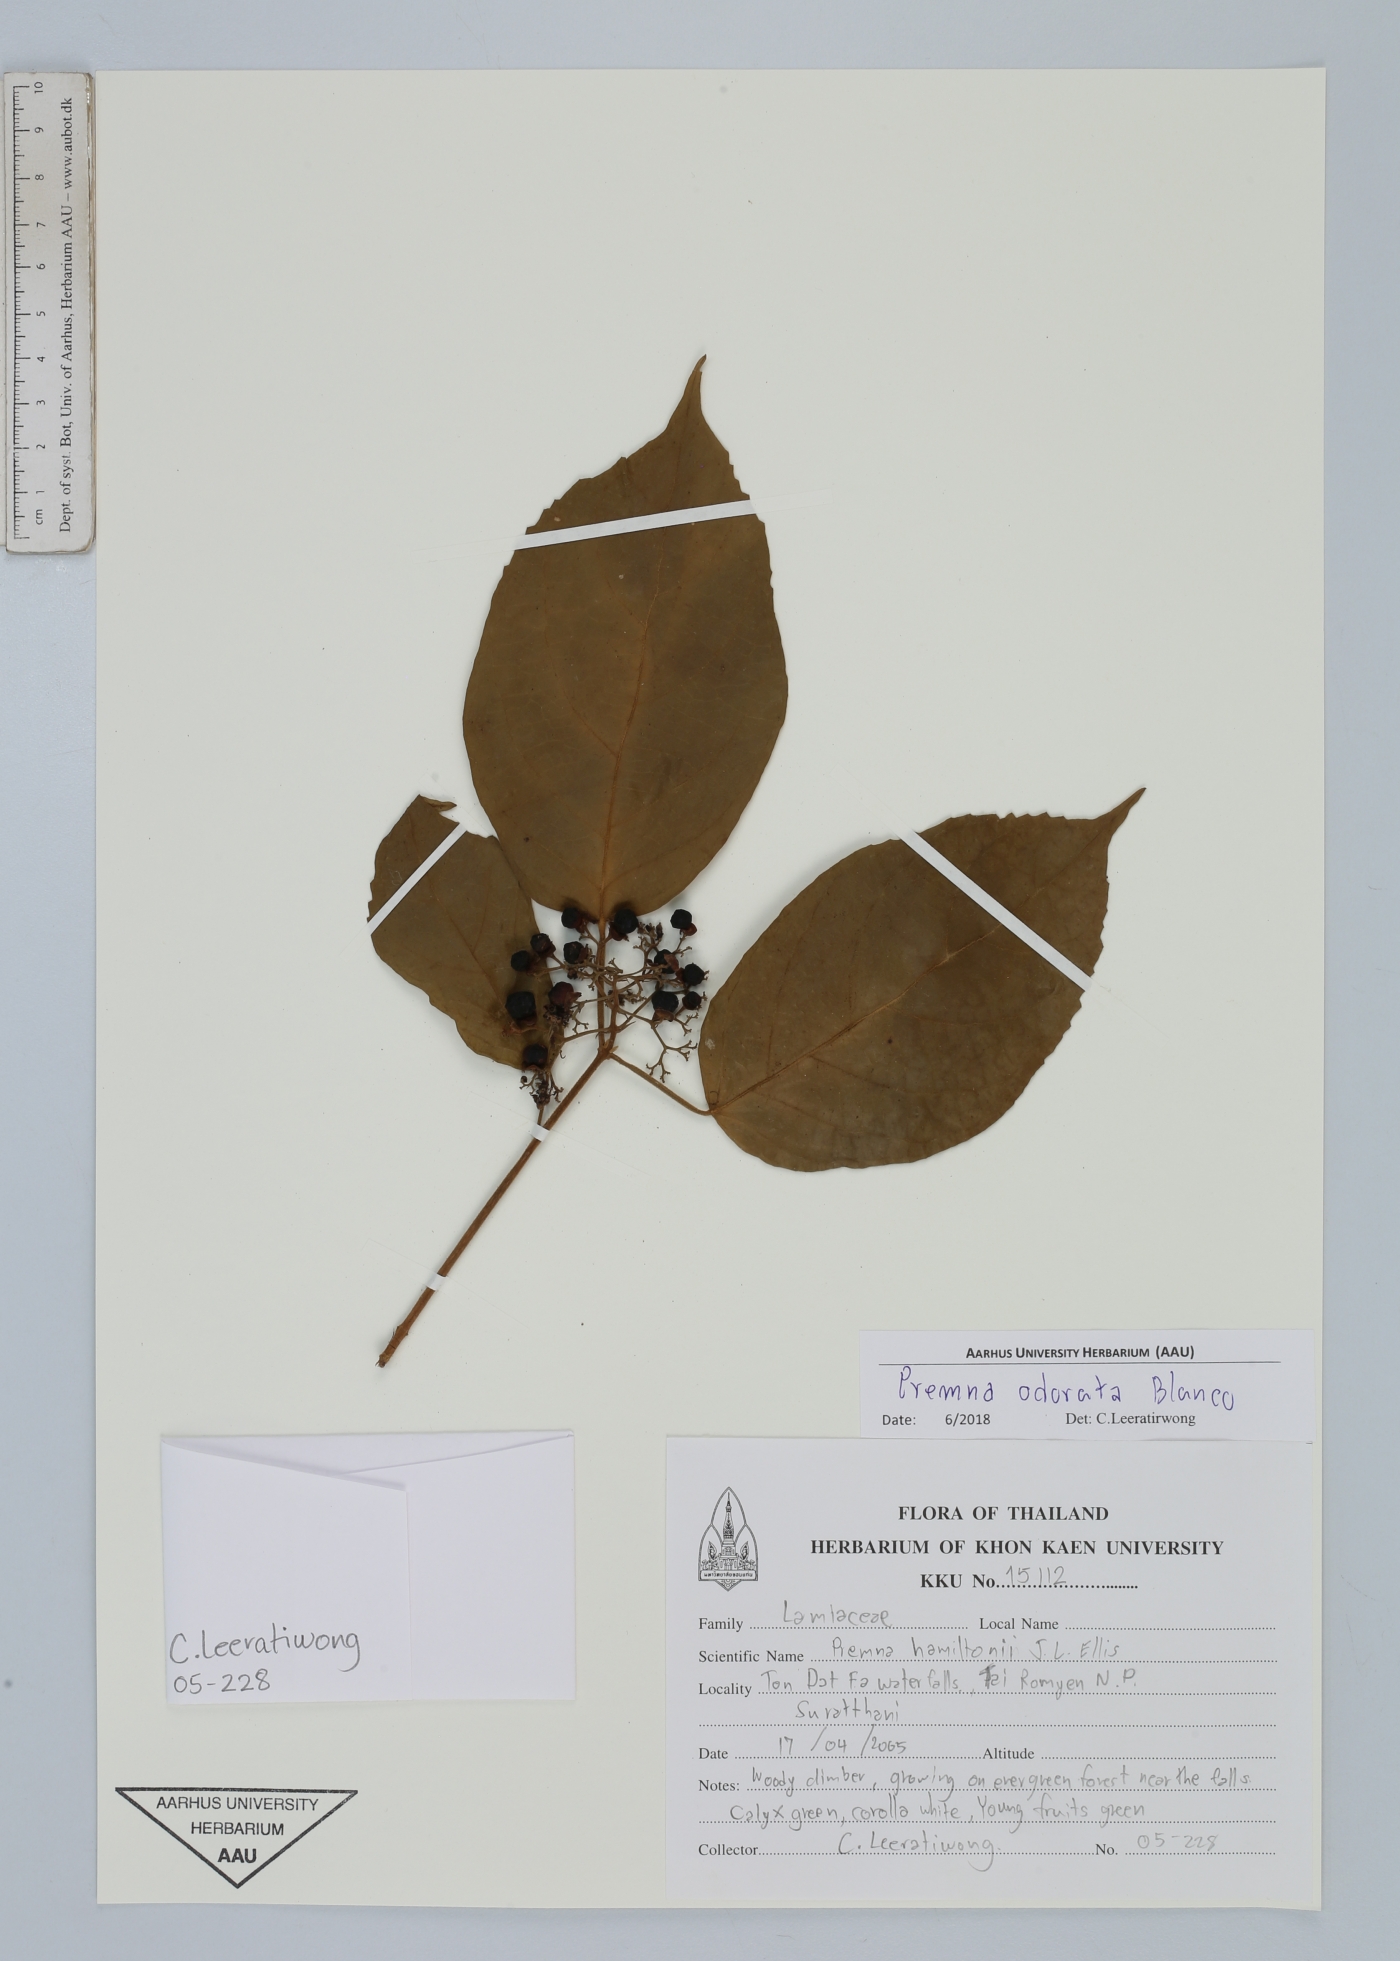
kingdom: Plantae
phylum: Tracheophyta
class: Magnoliopsida
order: Lamiales
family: Lamiaceae
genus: Premna
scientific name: Premna odorata
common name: Fragrant premna
